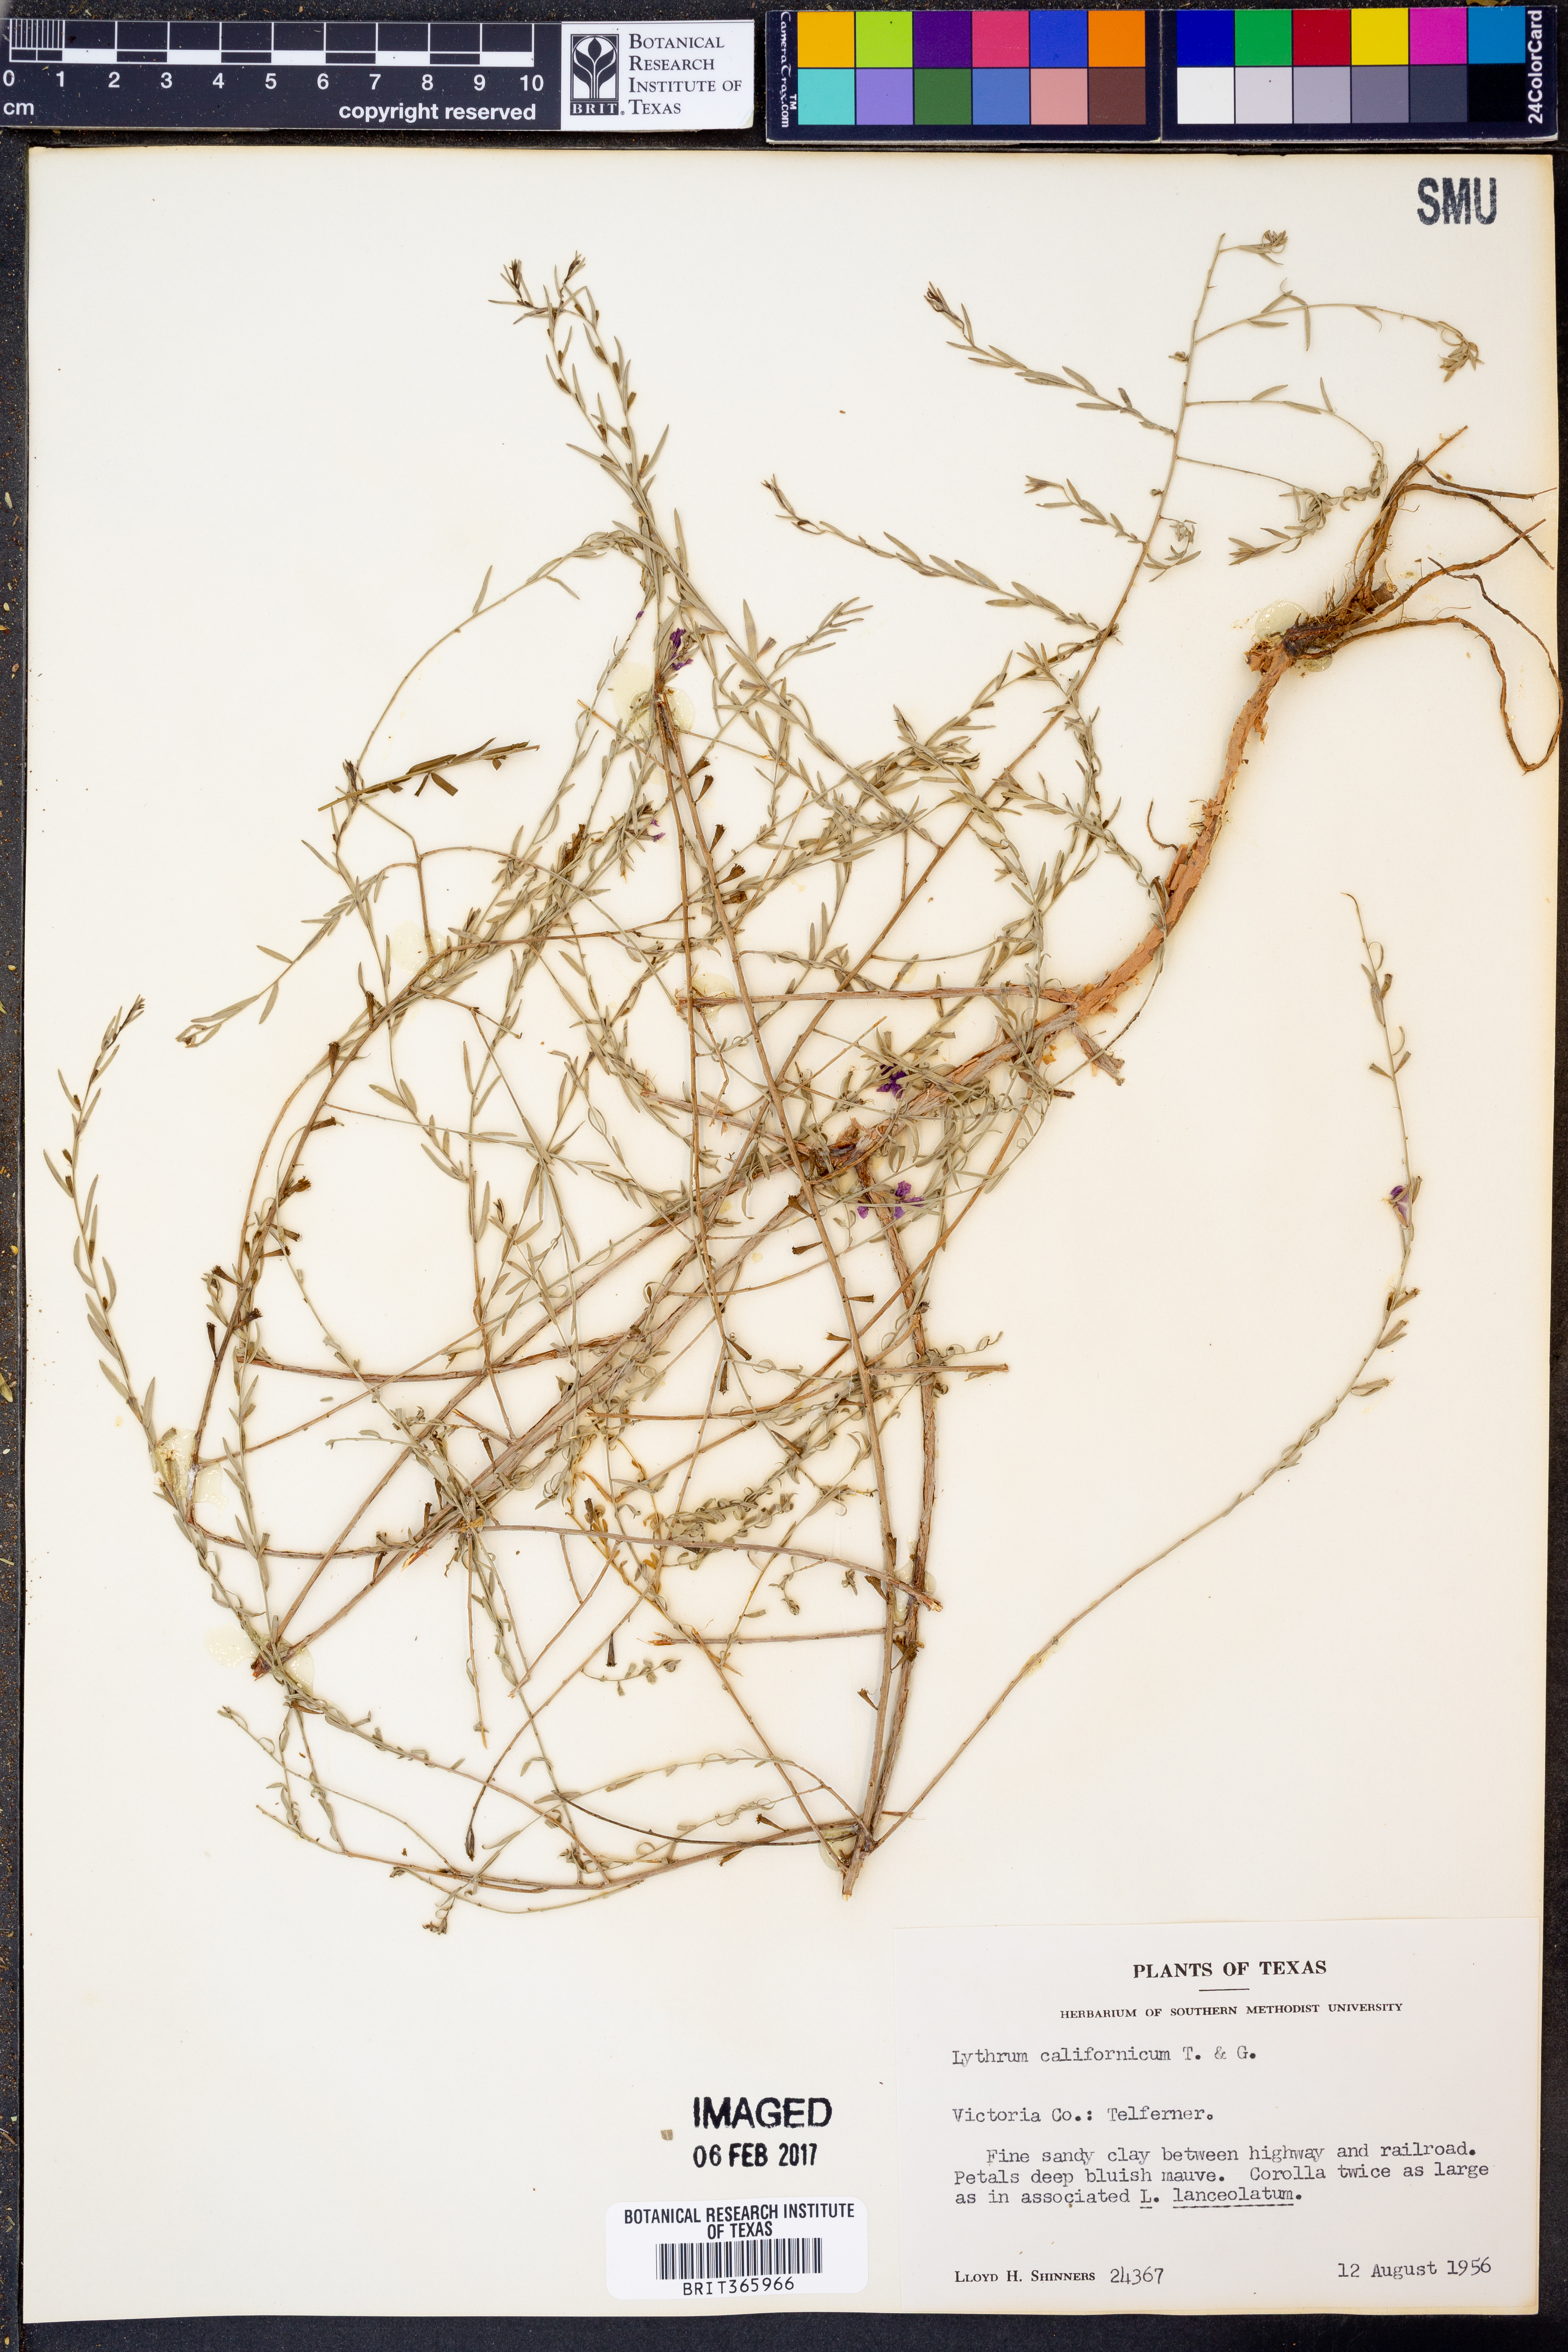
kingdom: Plantae
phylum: Tracheophyta
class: Magnoliopsida
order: Myrtales
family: Lythraceae
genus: Lythrum
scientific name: Lythrum californicum
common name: California loosestrife
